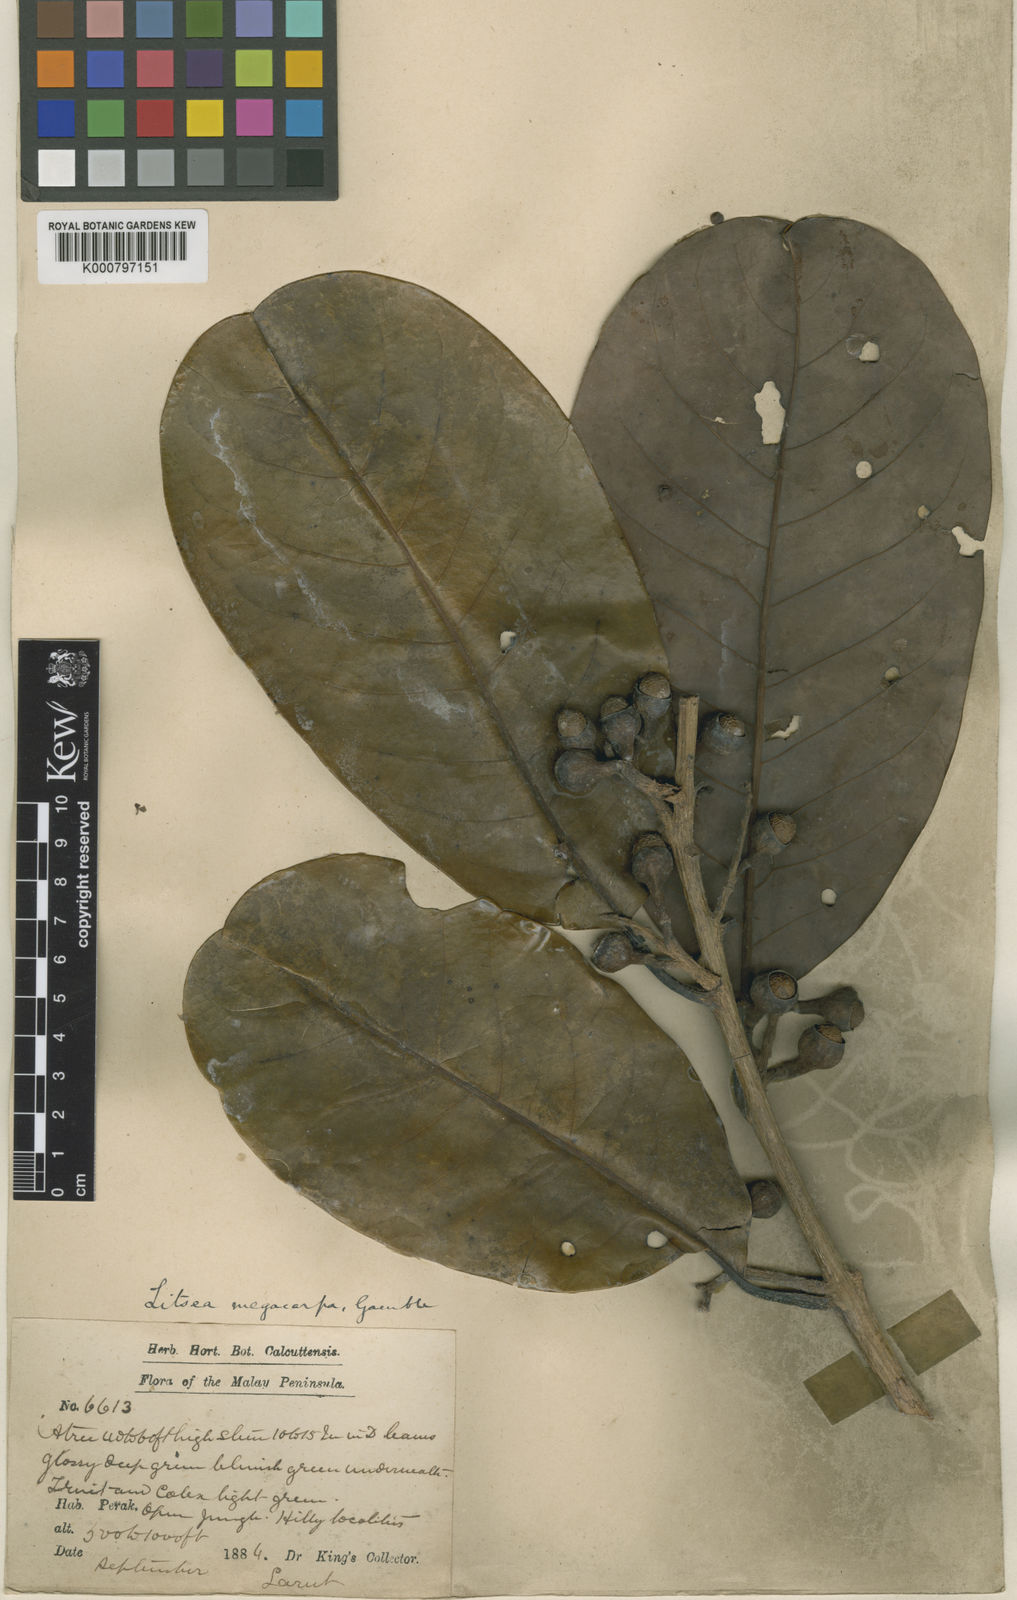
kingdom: Plantae
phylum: Tracheophyta
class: Magnoliopsida
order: Laurales
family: Lauraceae
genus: Litsea
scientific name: Litsea costalis
